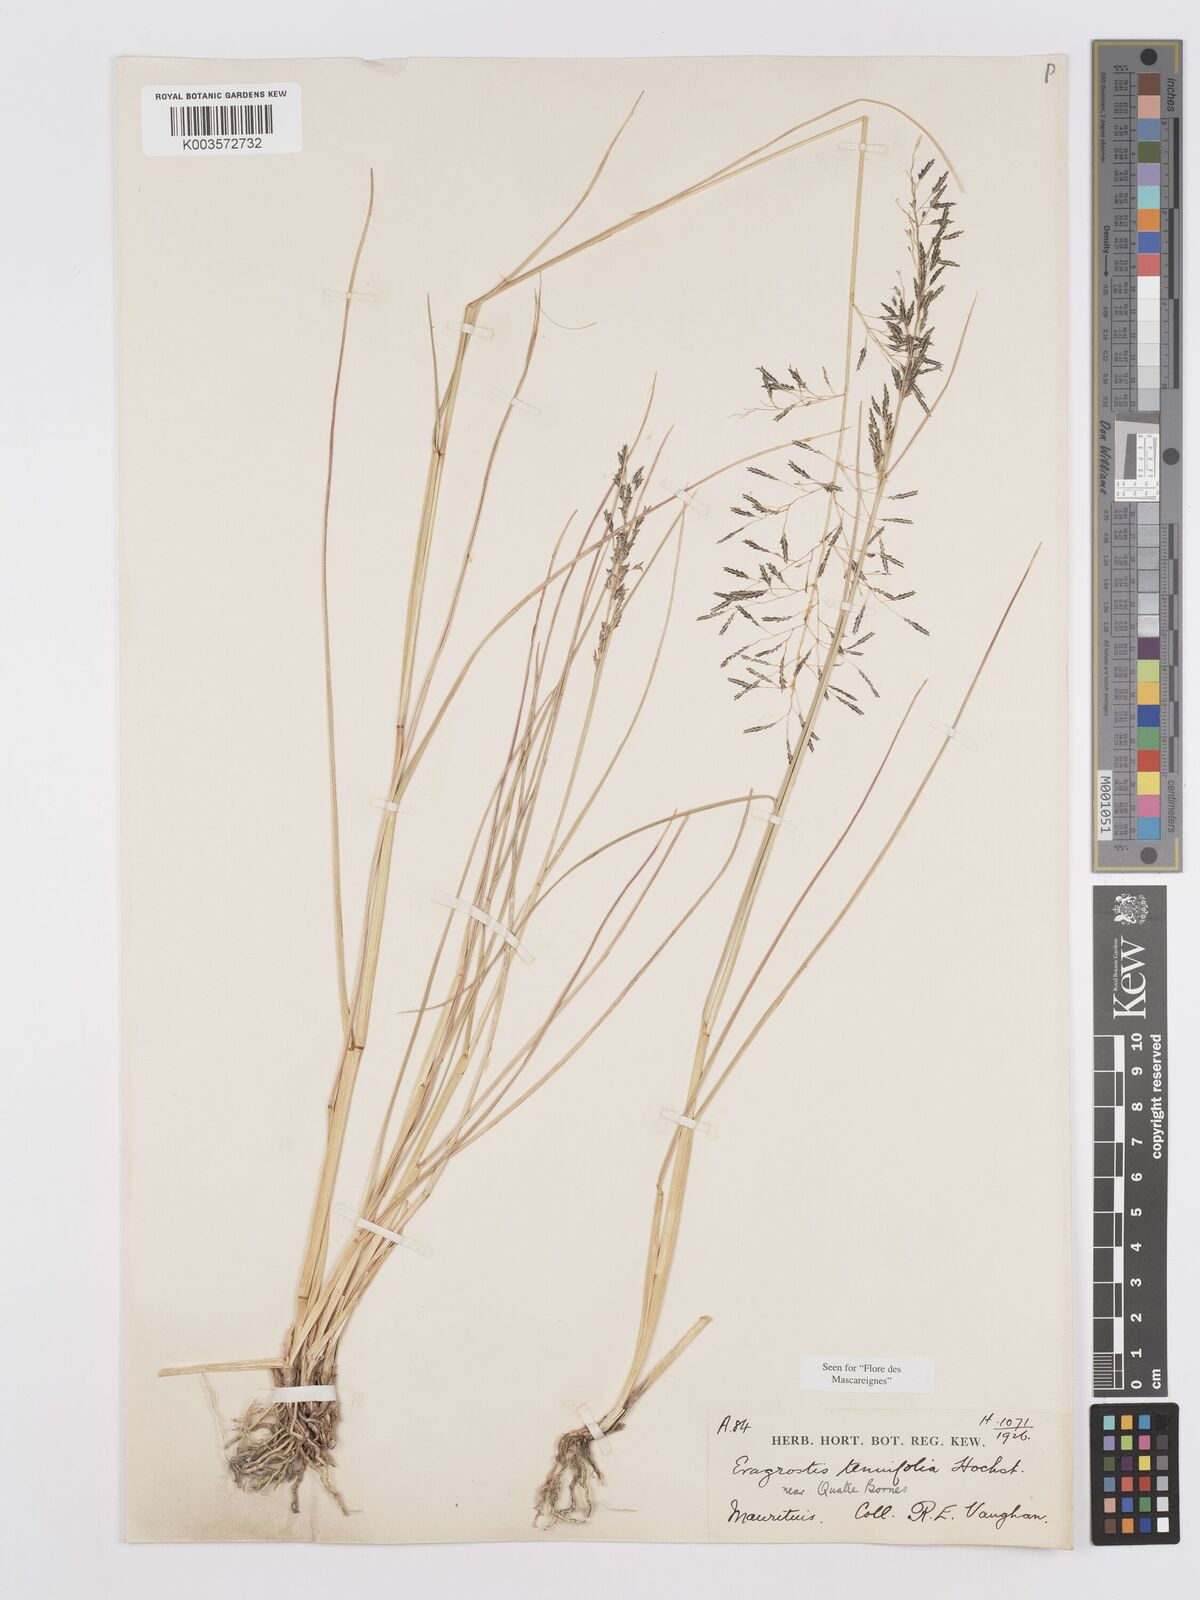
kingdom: Plantae
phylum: Tracheophyta
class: Liliopsida
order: Poales
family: Poaceae
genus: Eragrostis
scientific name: Eragrostis tenuifolia
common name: Elastic grass
